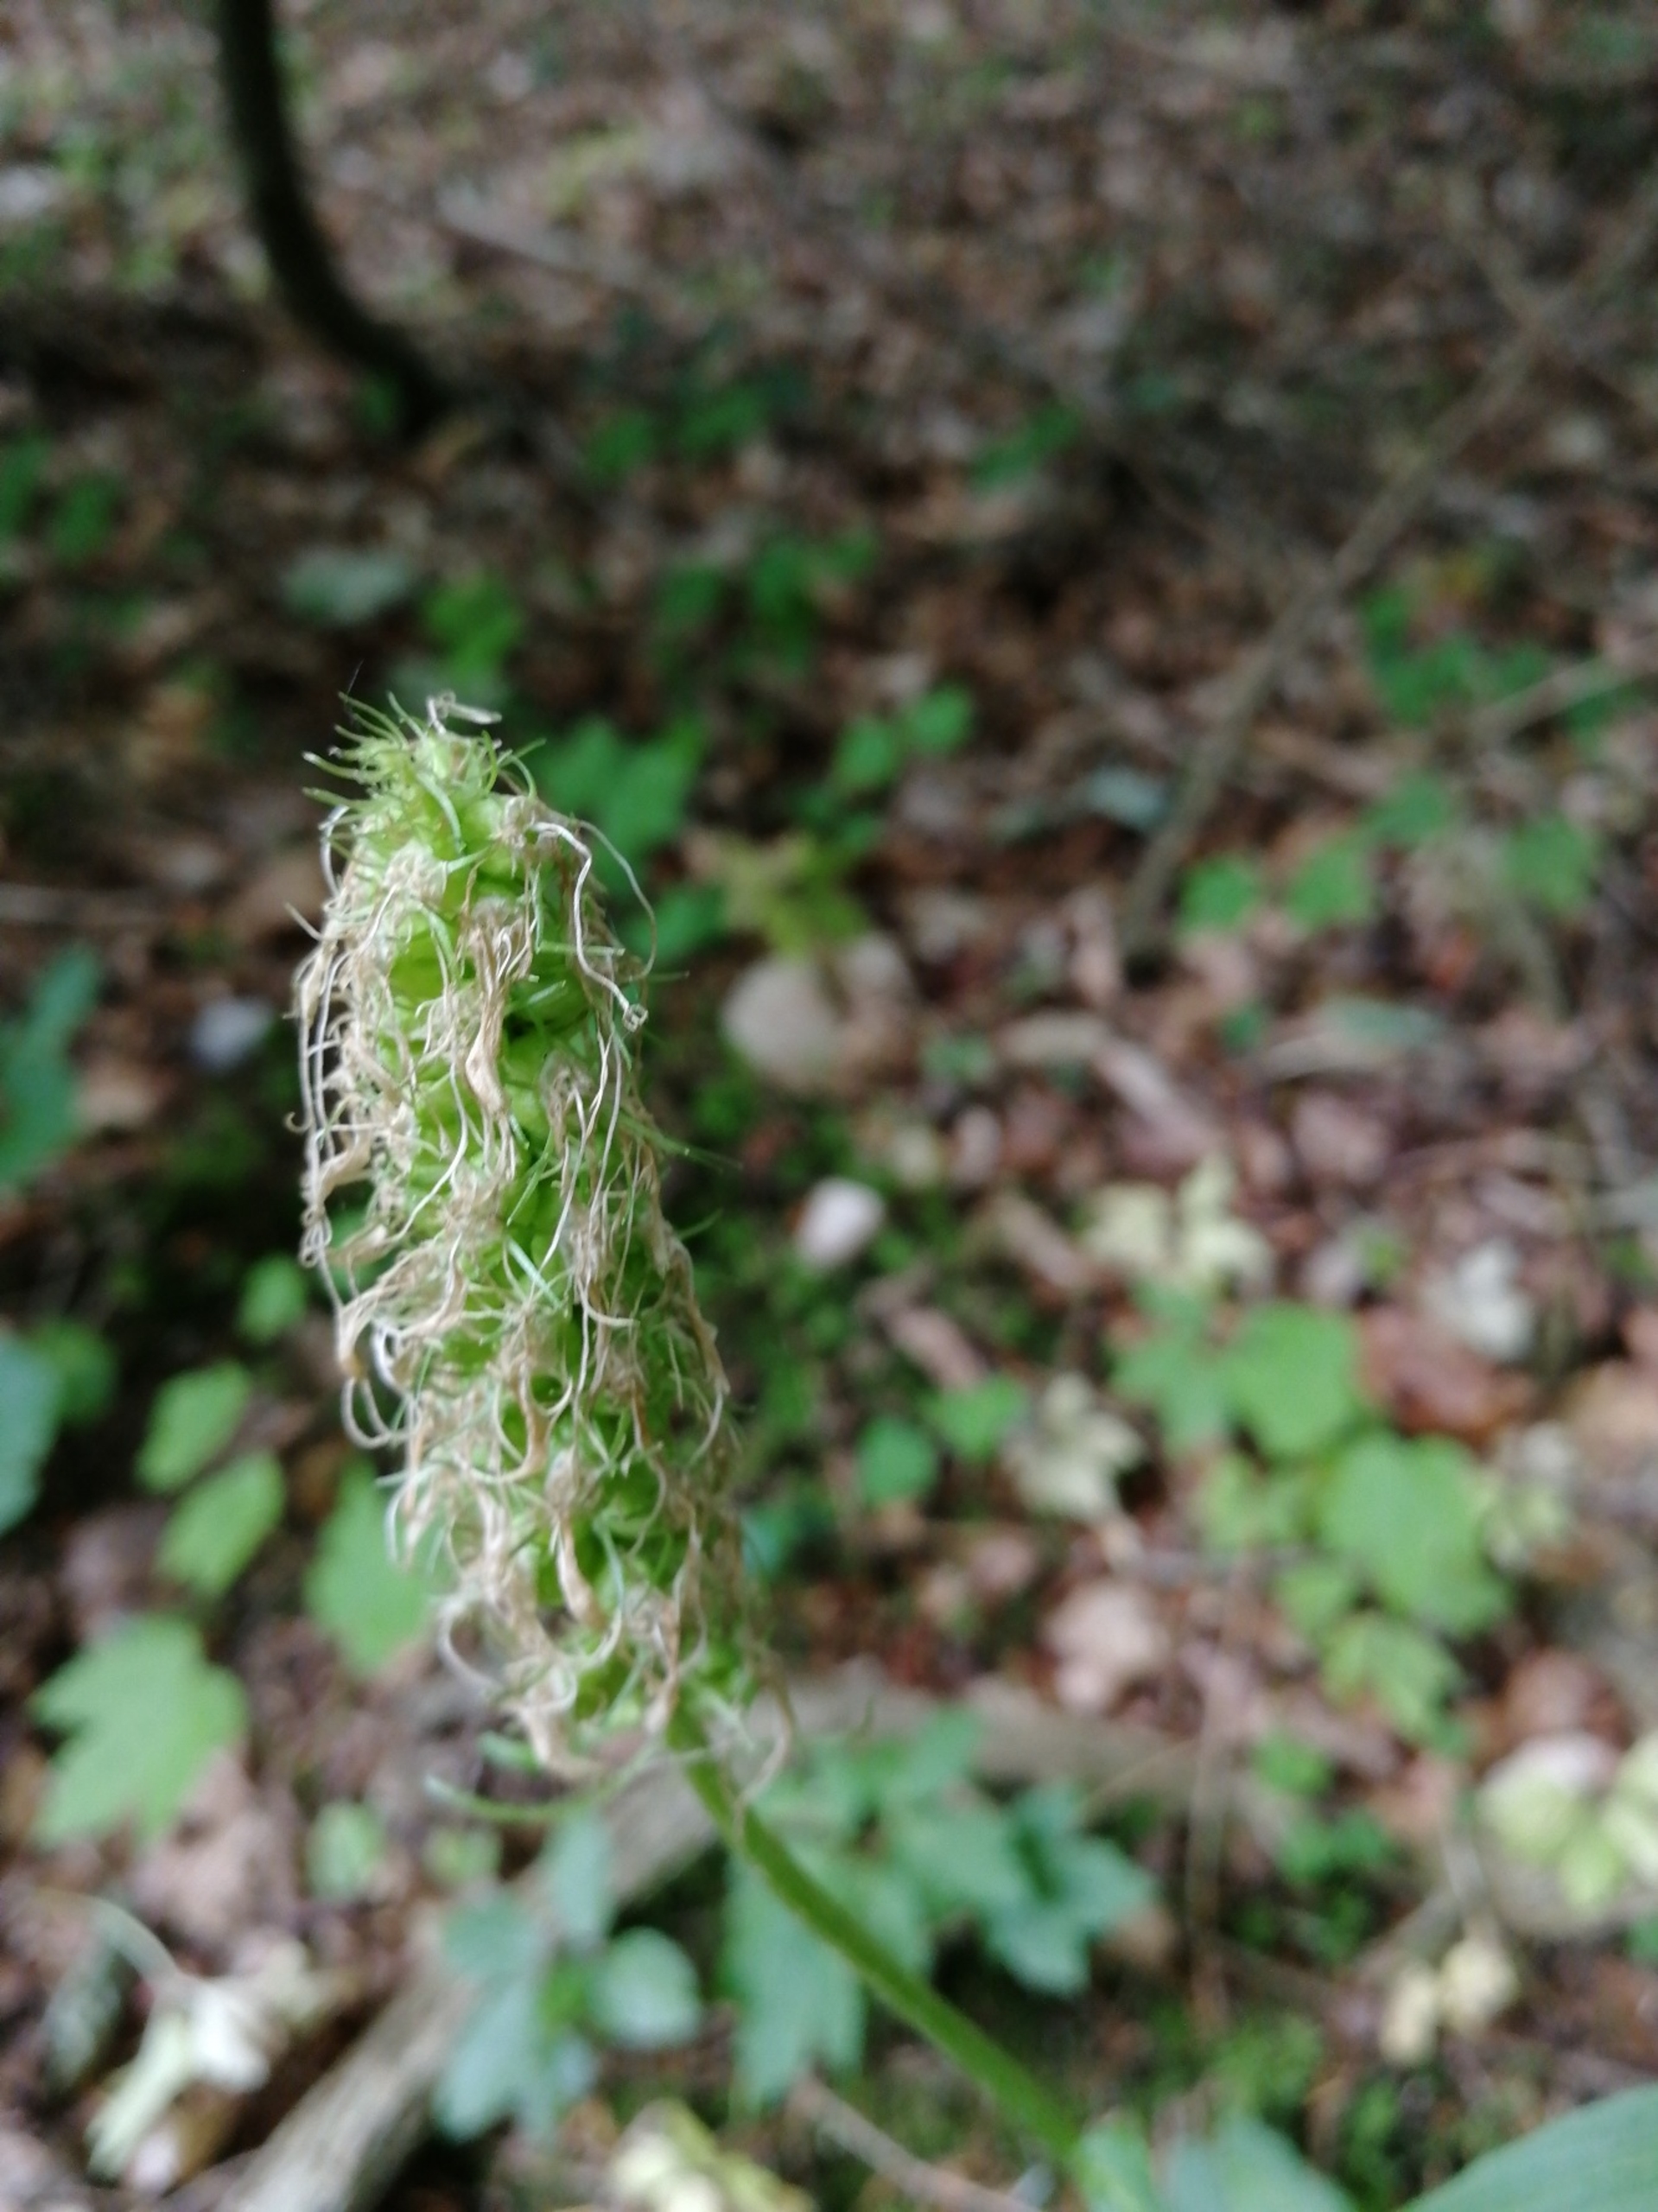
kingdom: Plantae
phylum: Tracheophyta
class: Magnoliopsida
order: Asterales
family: Campanulaceae
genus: Phyteuma
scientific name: Phyteuma spicatum
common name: Aks-rapunsel
